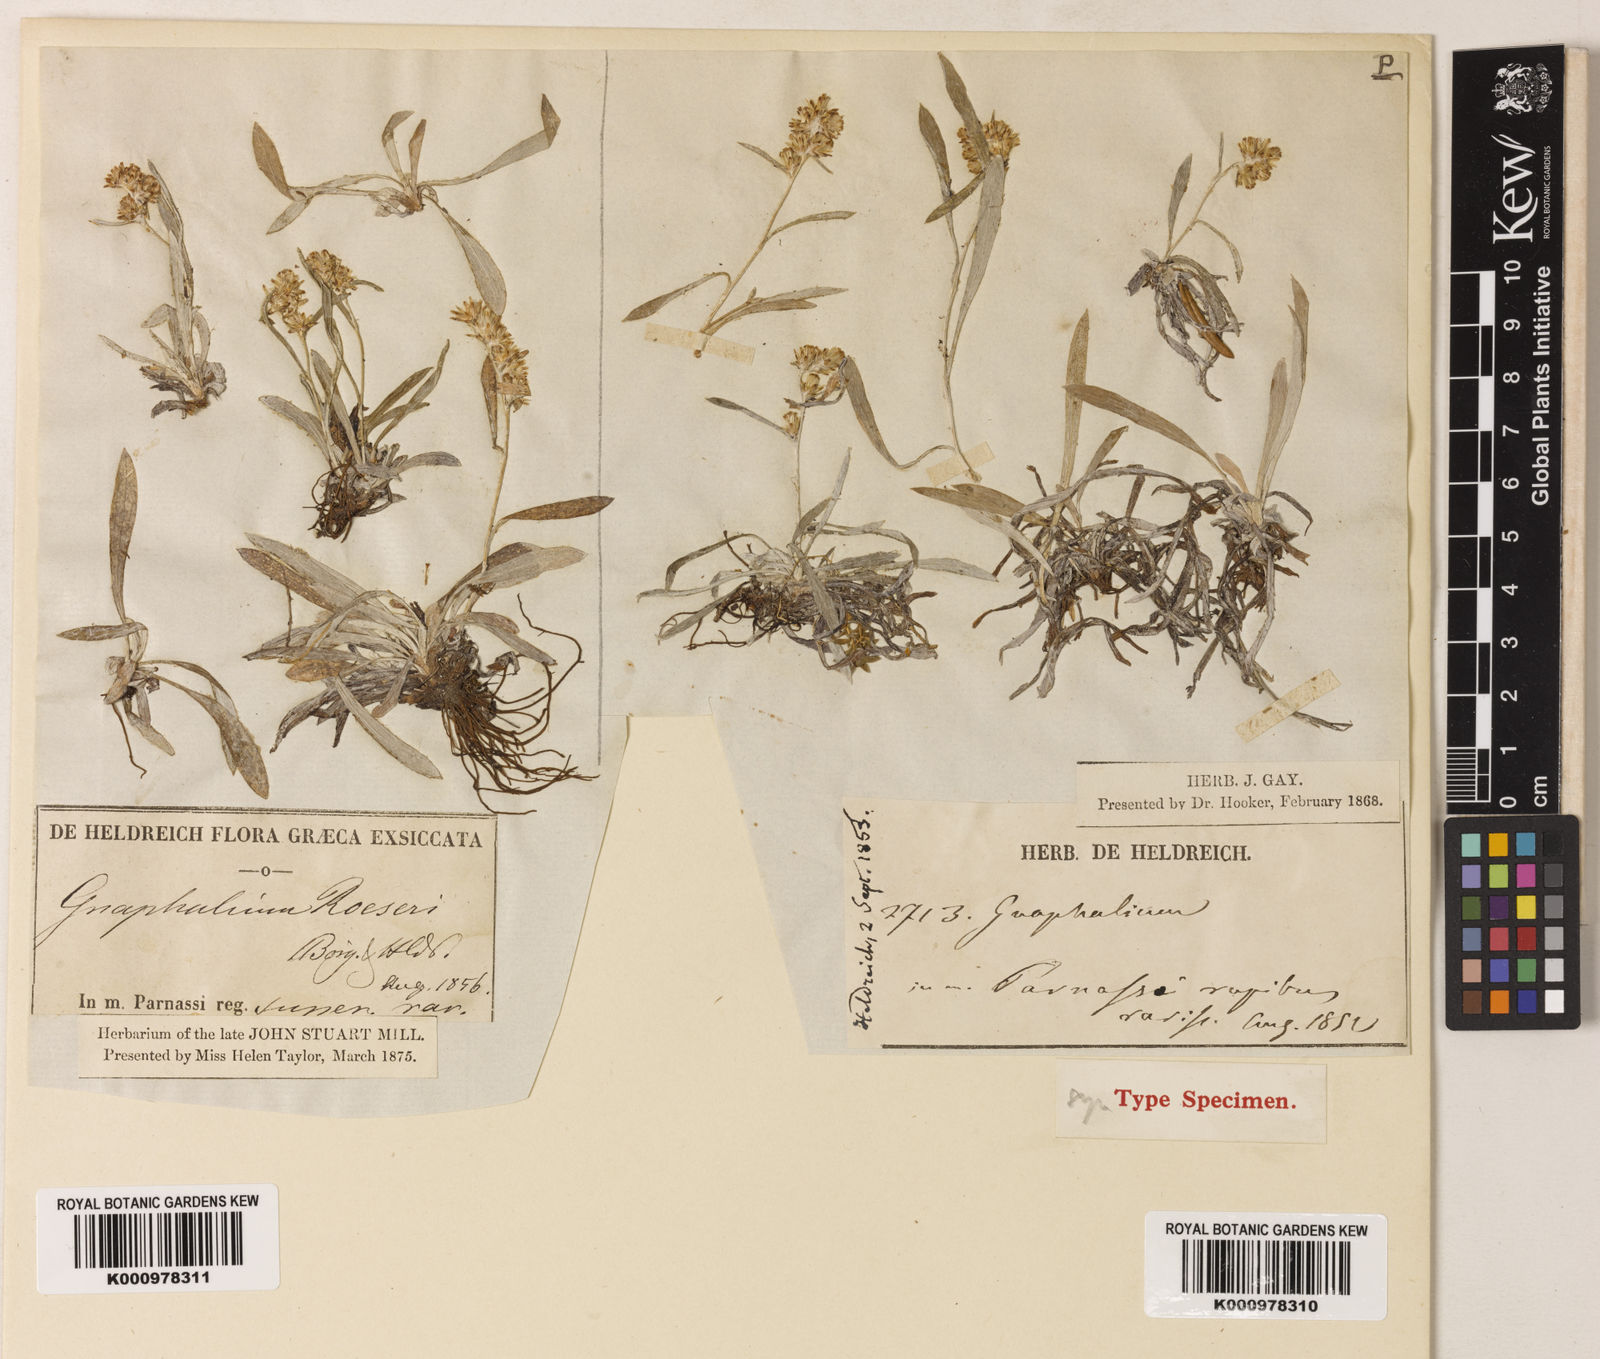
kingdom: Plantae
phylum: Tracheophyta
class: Magnoliopsida
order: Asterales
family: Asteraceae
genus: Omalotheca
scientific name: Omalotheca roeseri
